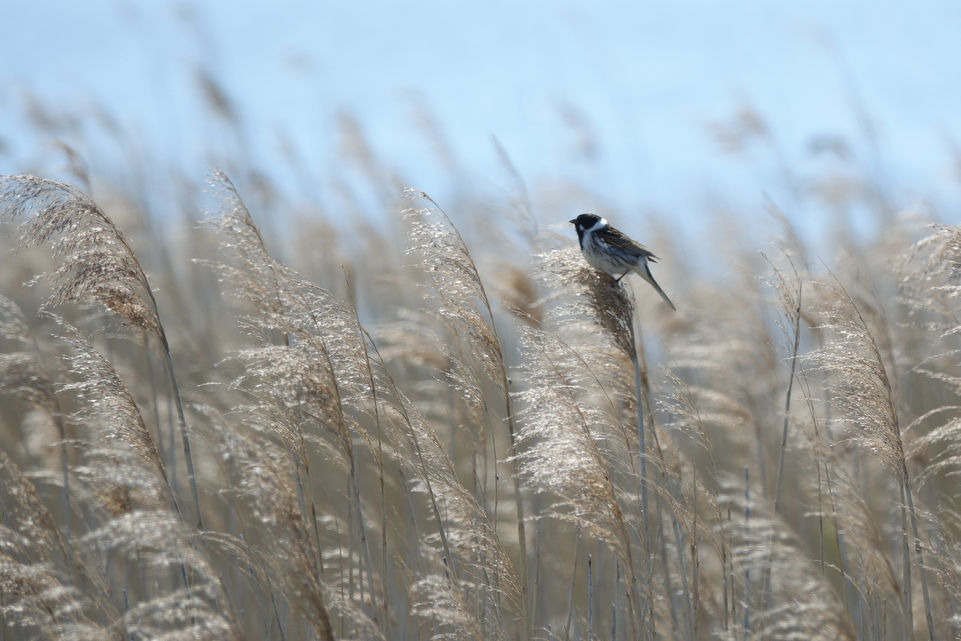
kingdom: Animalia
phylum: Chordata
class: Aves
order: Passeriformes
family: Emberizidae
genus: Emberiza
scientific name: Emberiza schoeniclus
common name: Rørspurv
